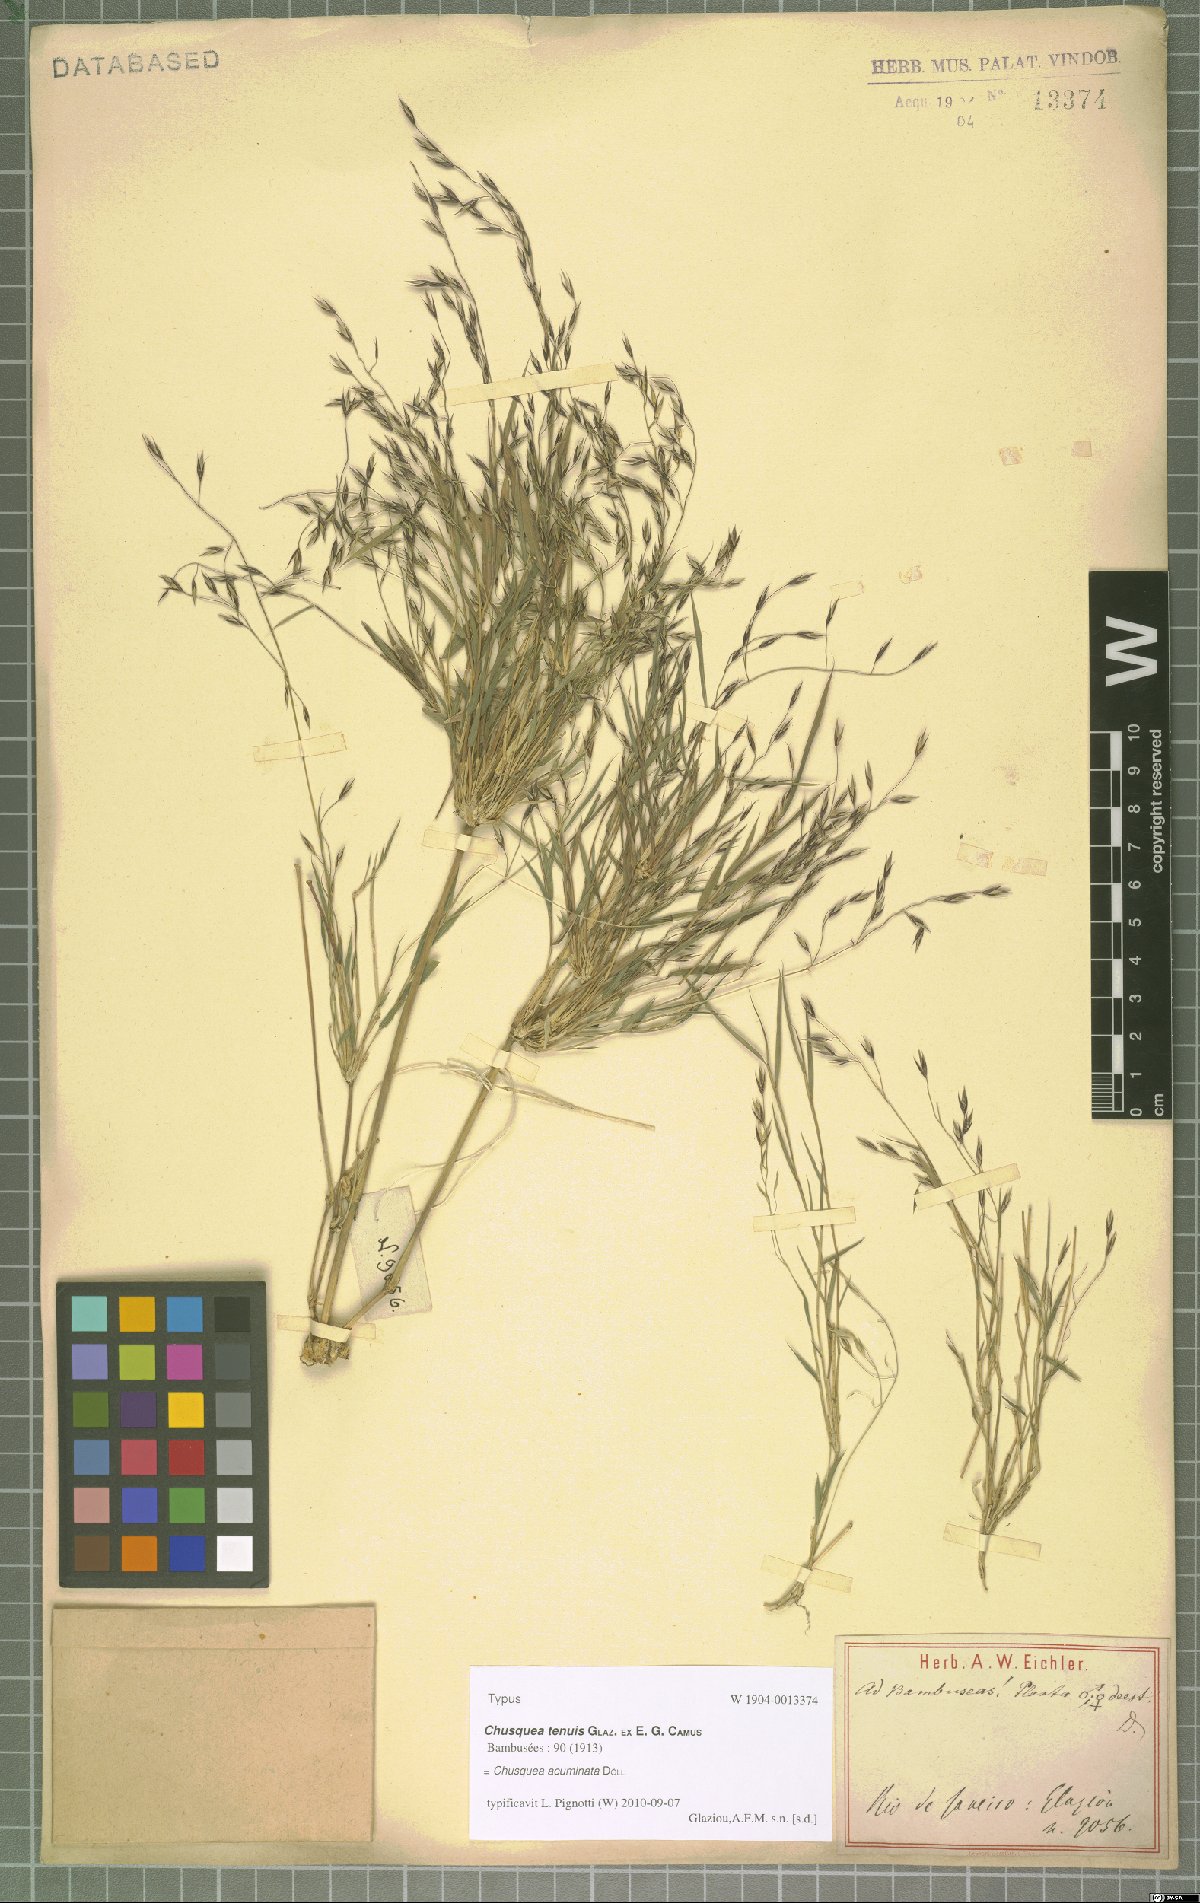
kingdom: Plantae
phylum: Tracheophyta
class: Liliopsida
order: Poales
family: Poaceae
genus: Chusquea
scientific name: Chusquea acuminata
